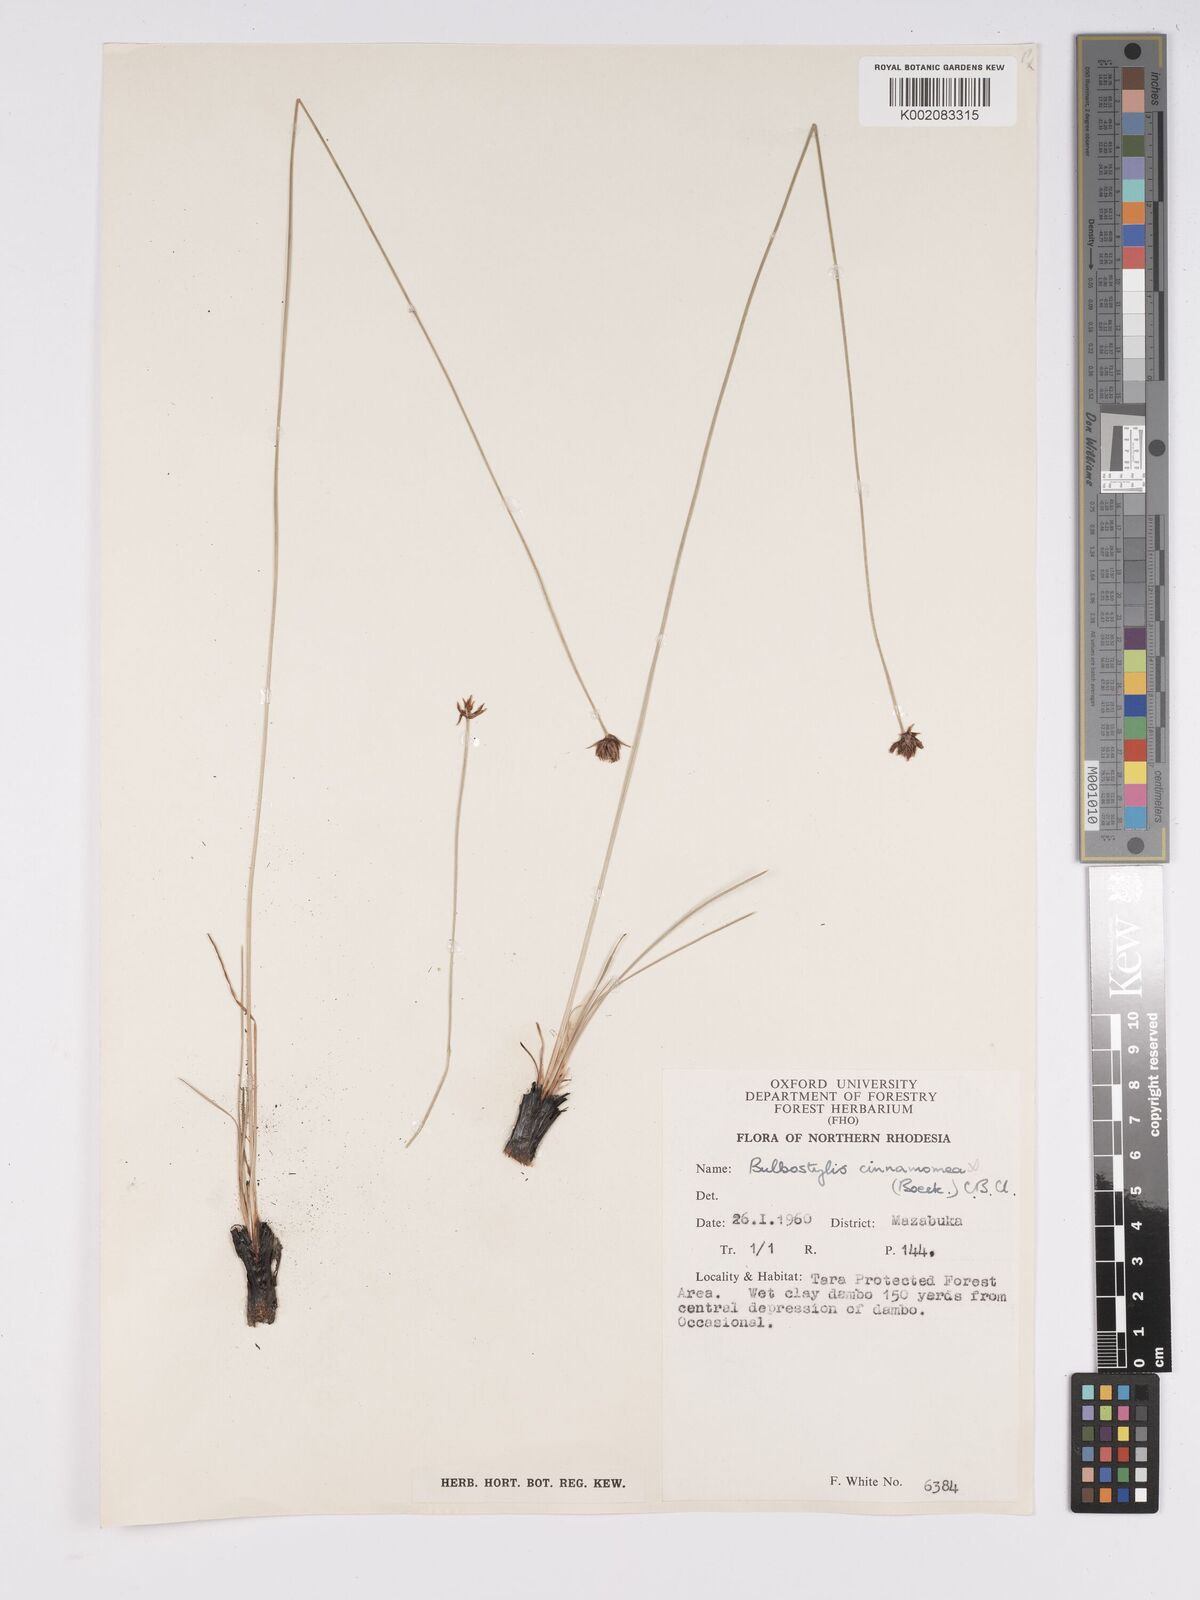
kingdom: Plantae
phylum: Tracheophyta
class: Liliopsida
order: Poales
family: Cyperaceae
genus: Bulbostylis
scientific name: Bulbostylis schoenoides
